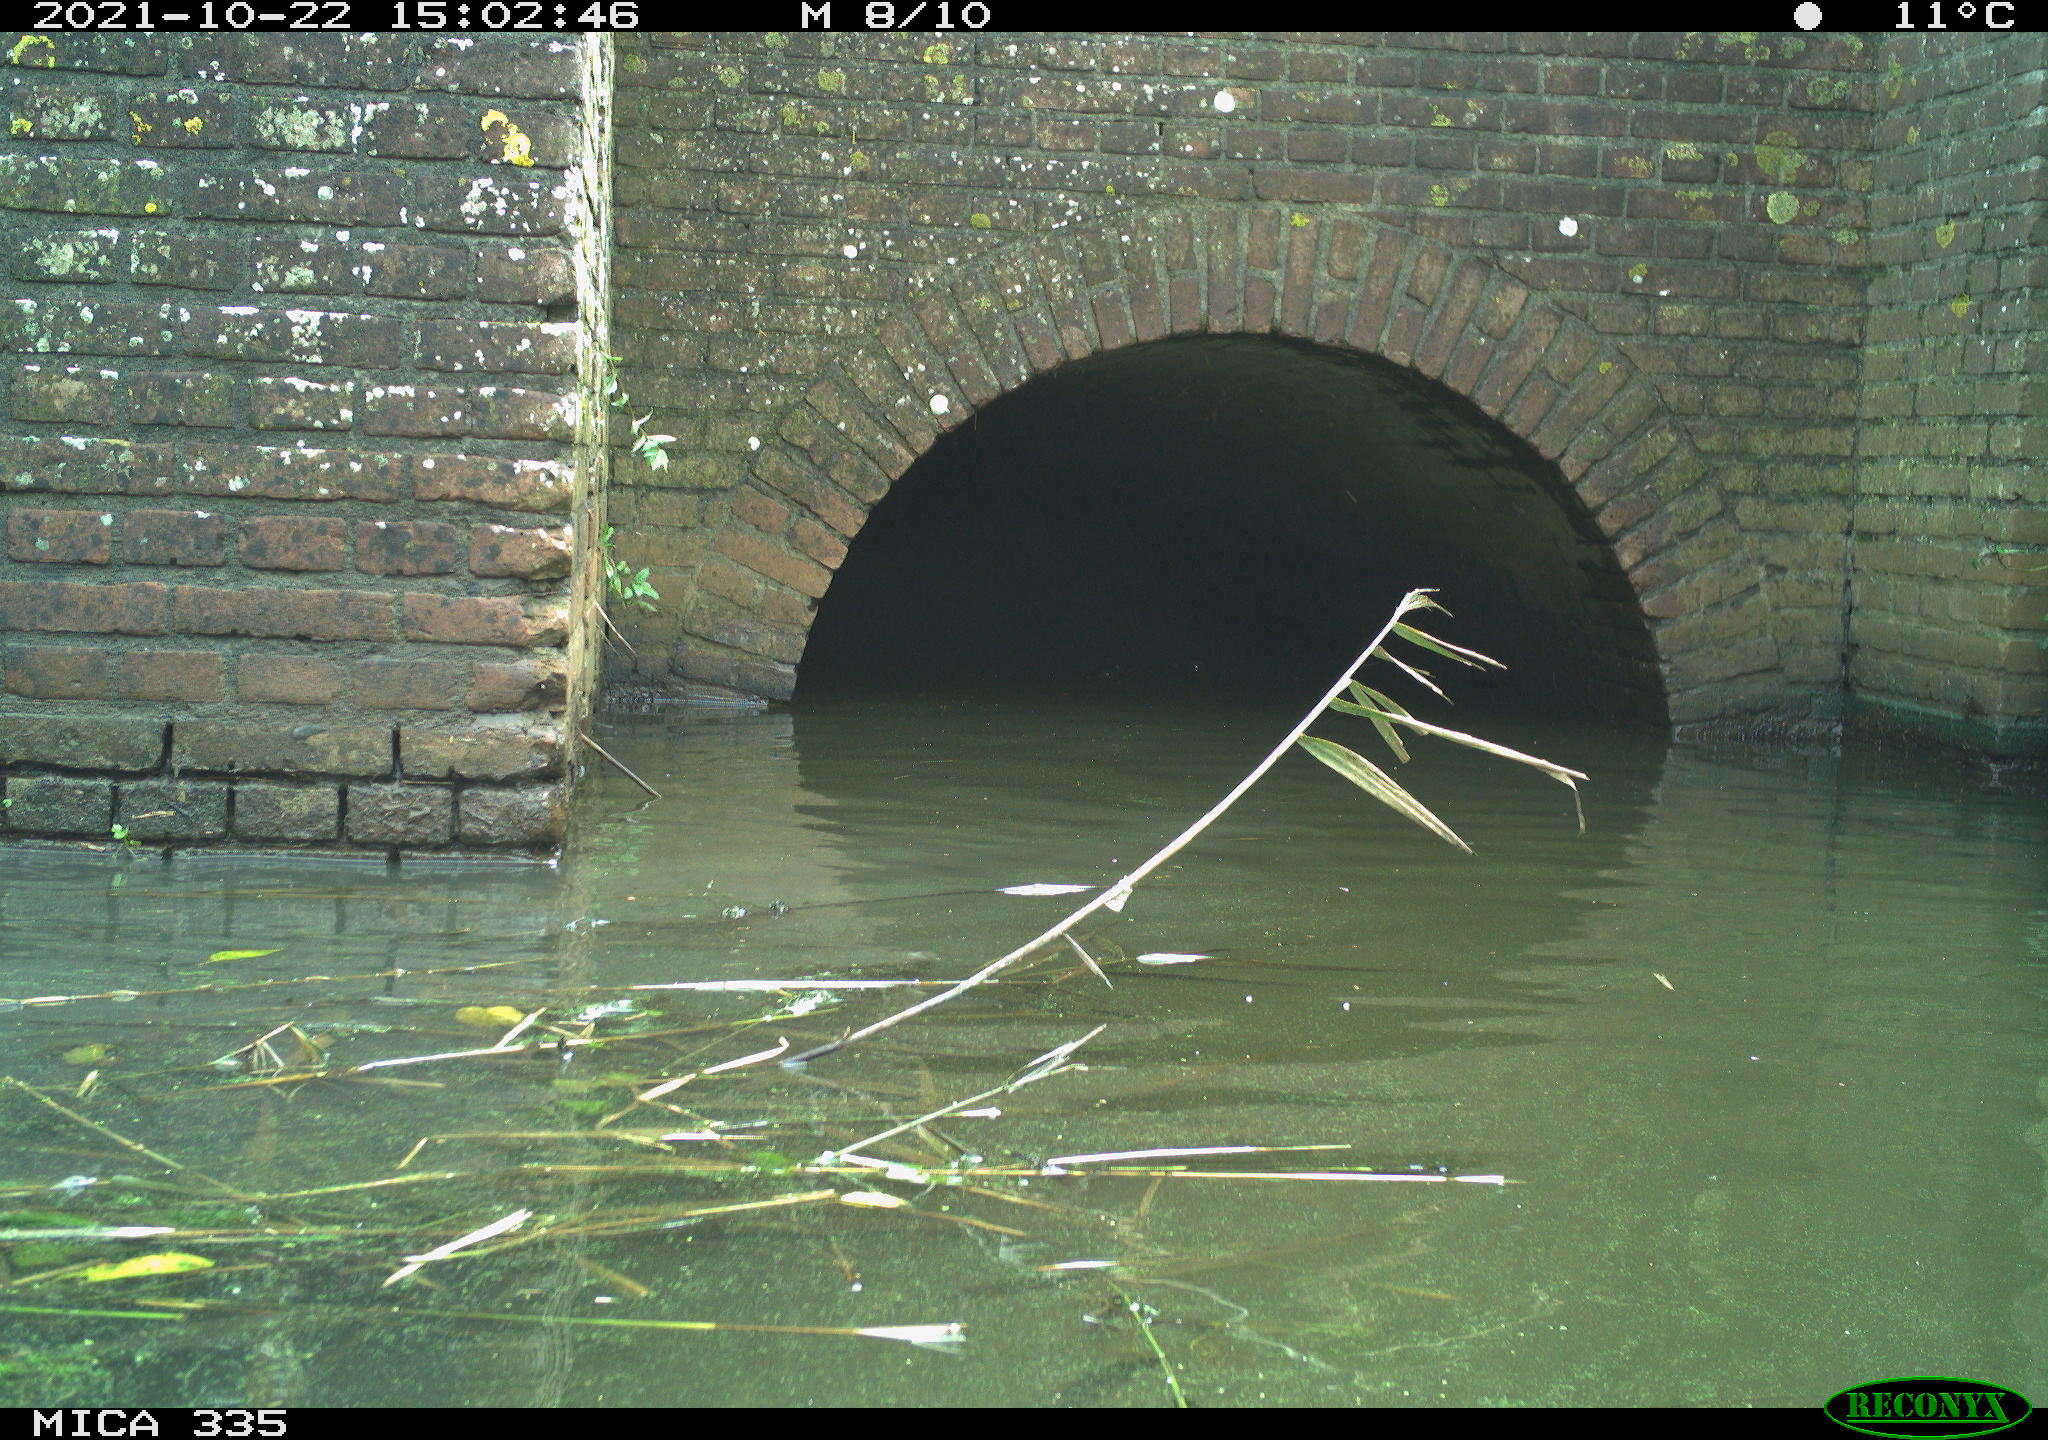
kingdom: Animalia
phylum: Chordata
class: Aves
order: Anseriformes
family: Anatidae
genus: Anas
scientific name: Anas platyrhynchos
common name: Mallard
